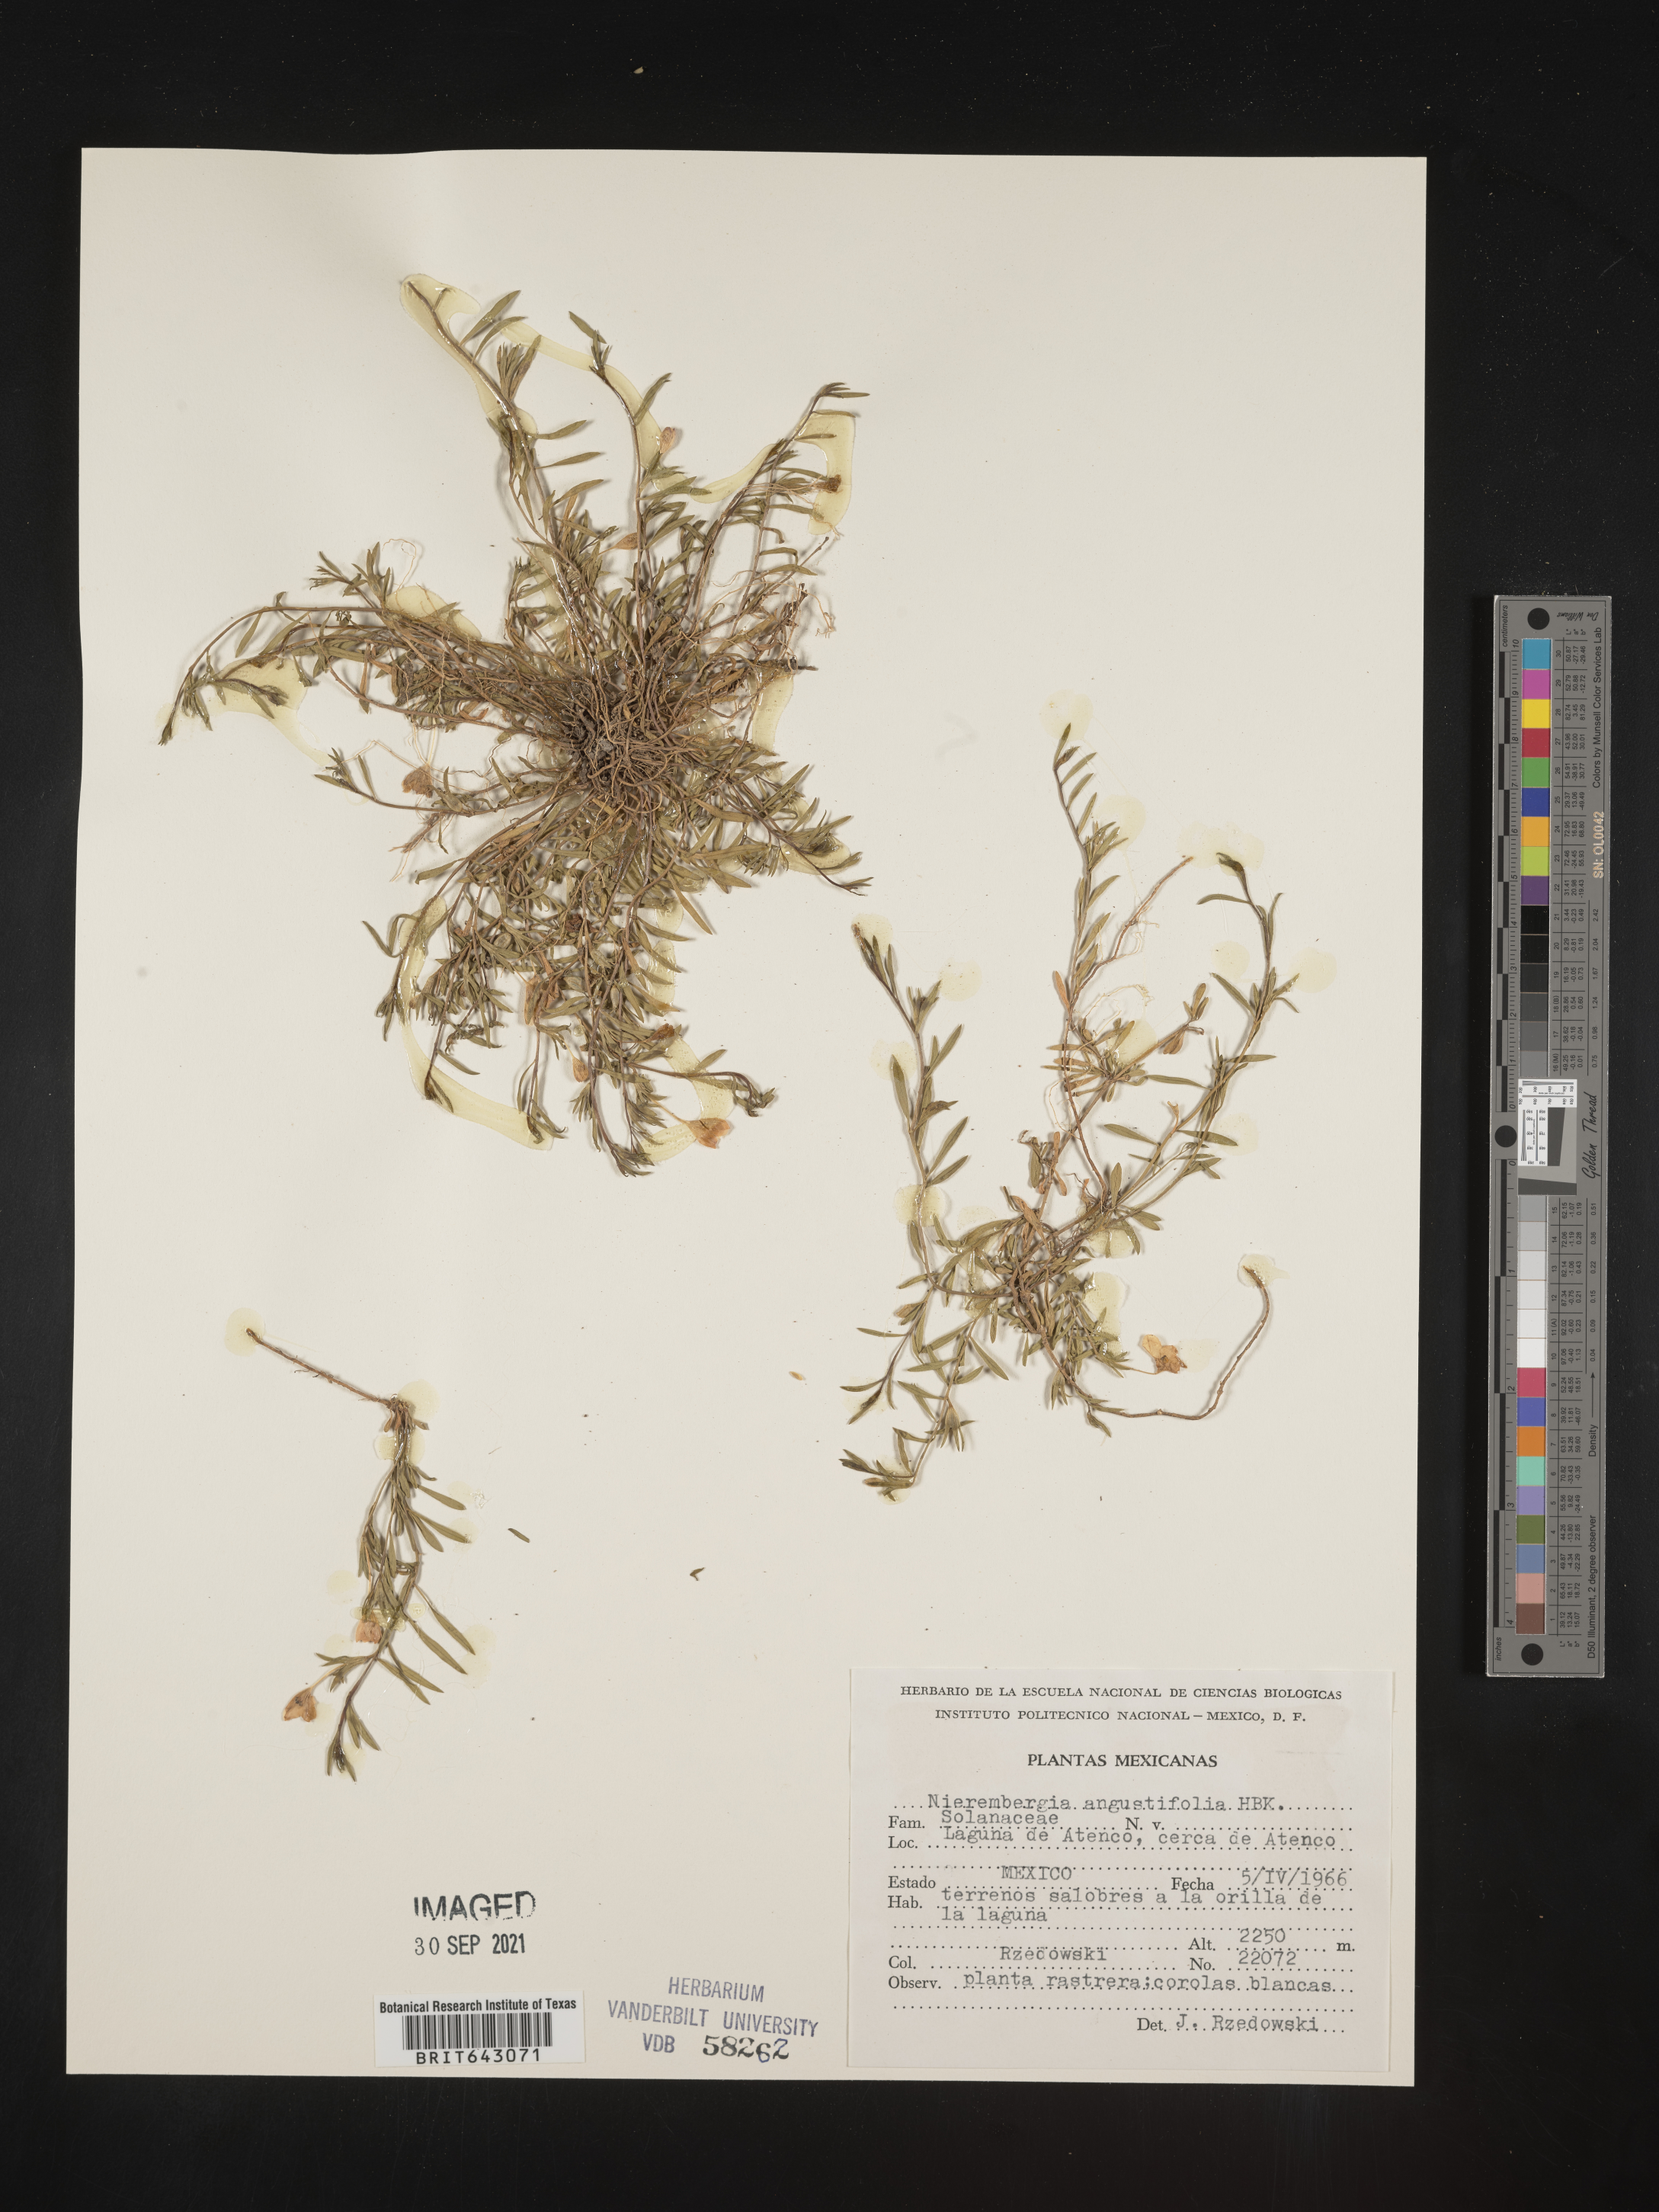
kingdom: Plantae
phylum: Tracheophyta
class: Magnoliopsida
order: Solanales
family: Solanaceae
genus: Nierembergia
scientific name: Nierembergia linariifolia
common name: Dwarf cupflower
